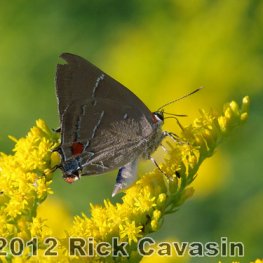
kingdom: Animalia
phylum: Arthropoda
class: Insecta
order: Lepidoptera
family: Lycaenidae
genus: Parrhasius
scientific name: Parrhasius m-album
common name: White-m Hairstreak
